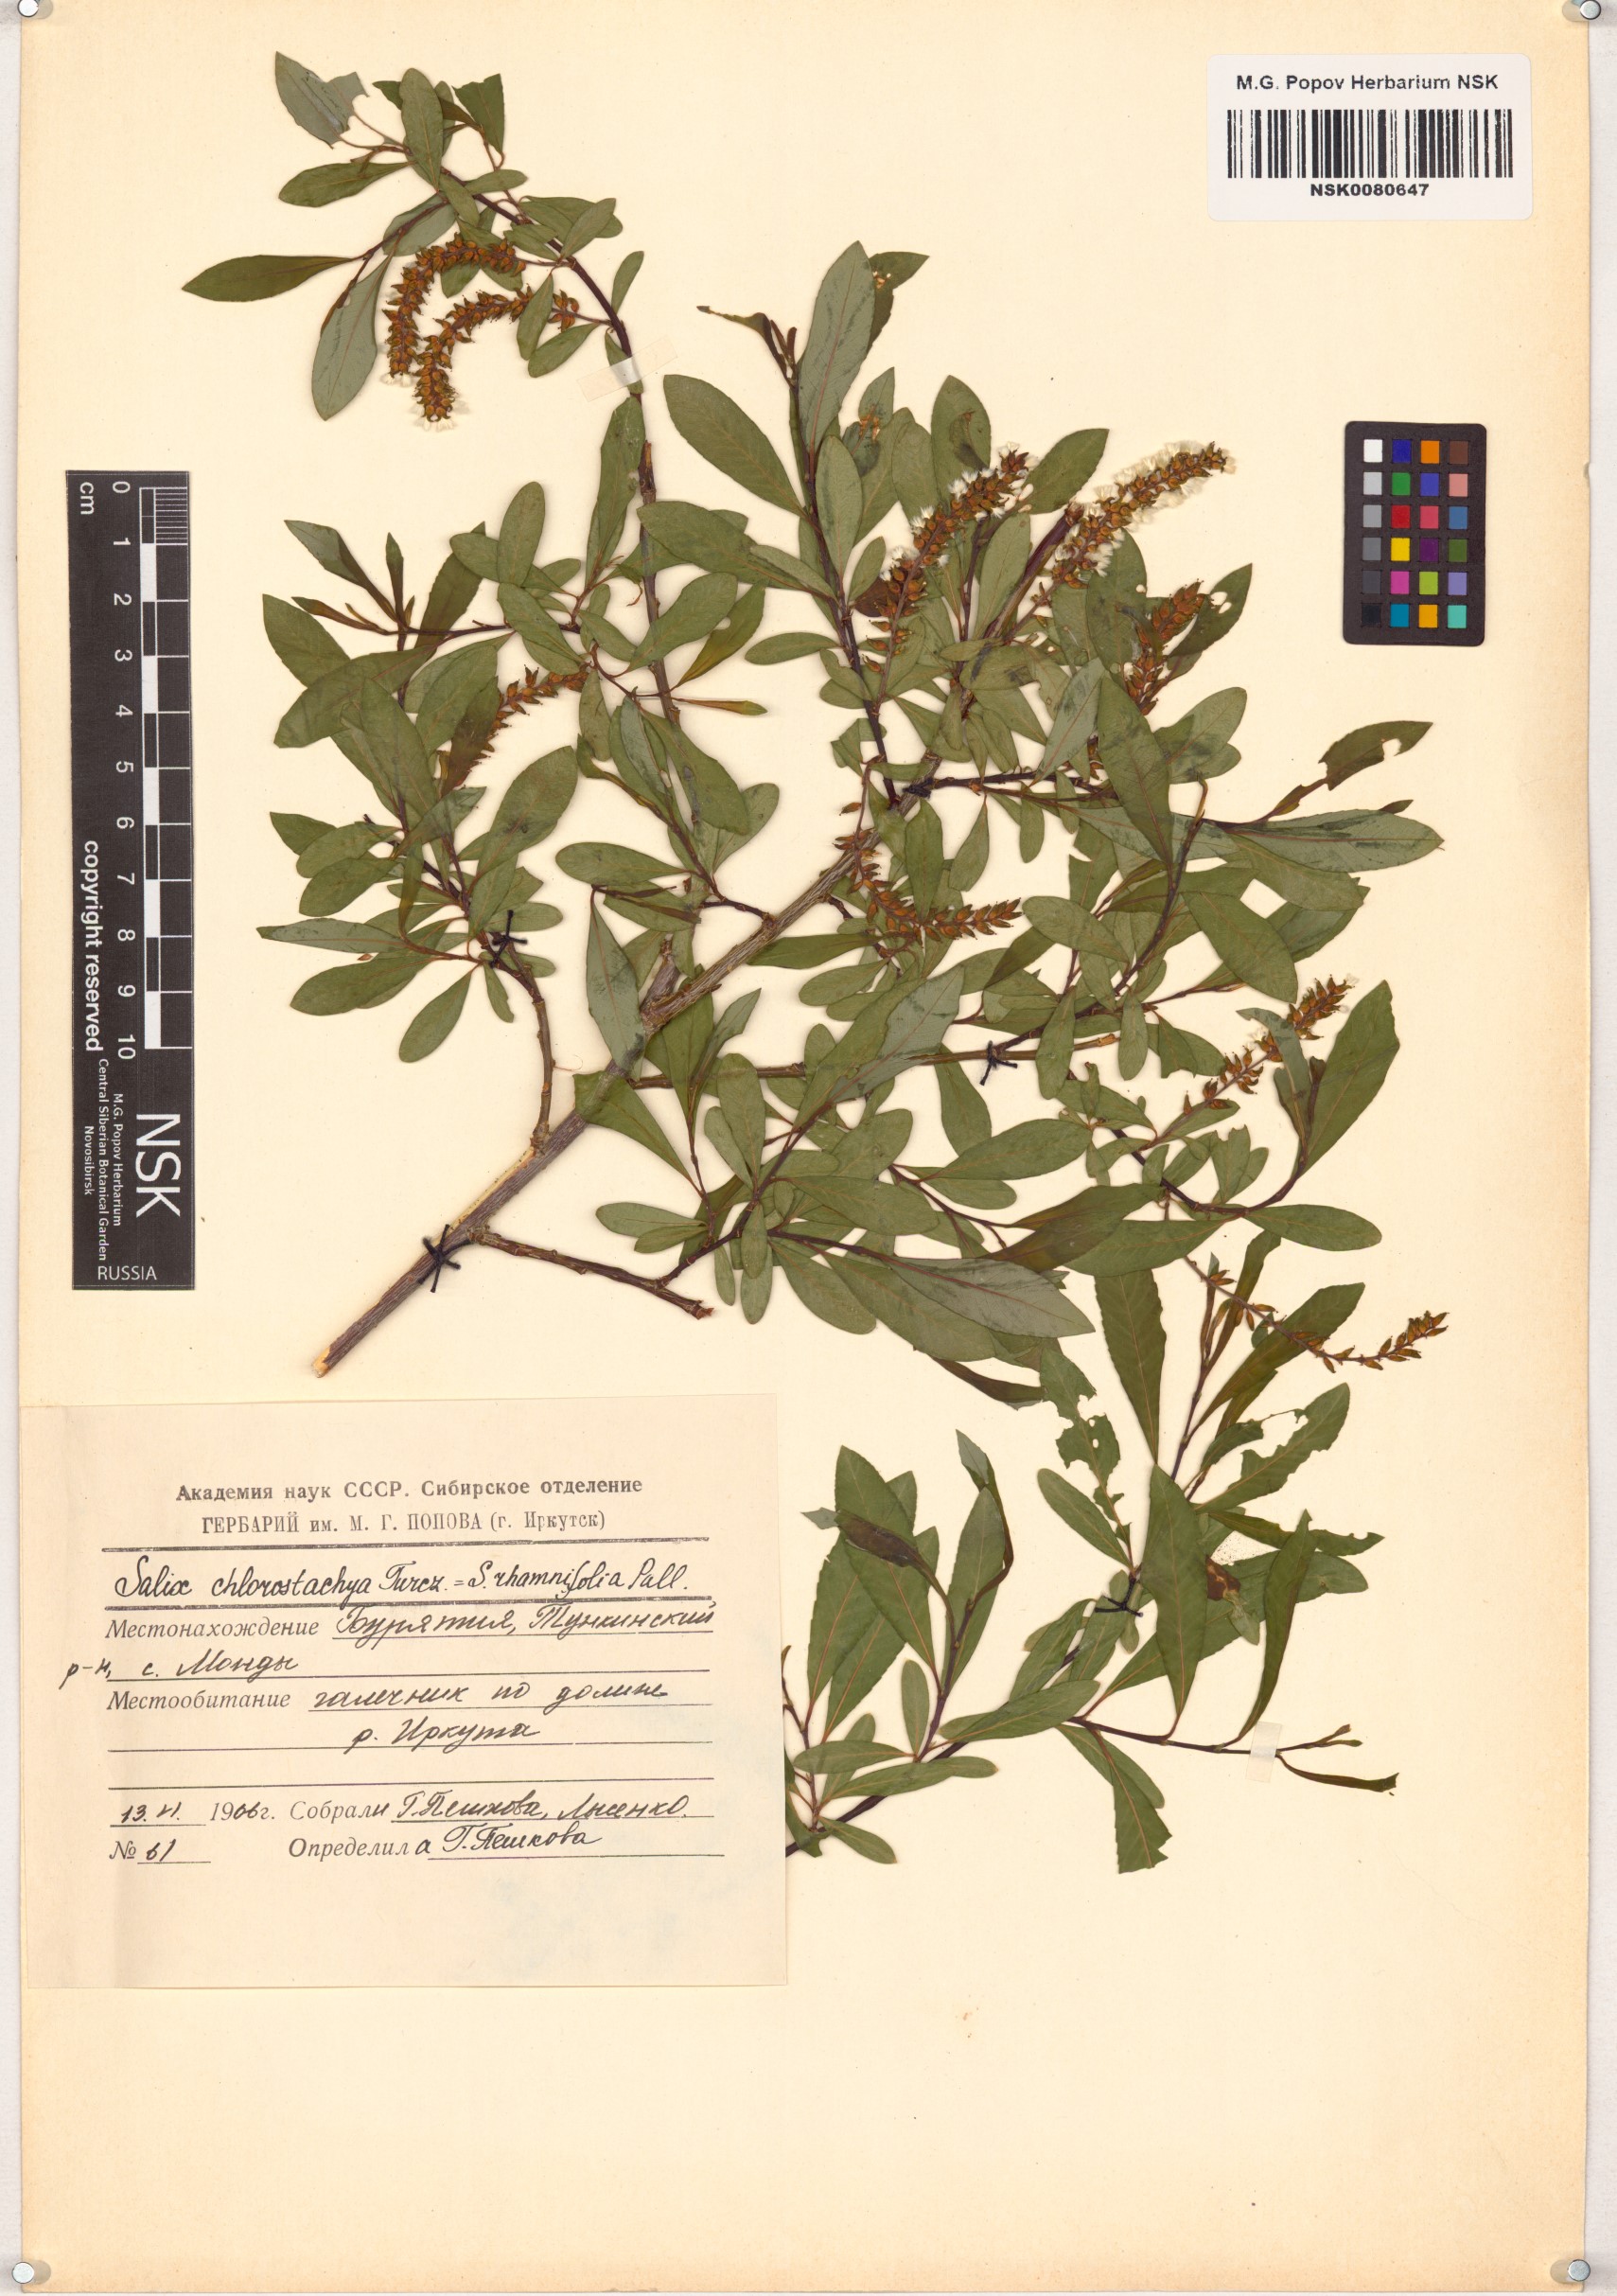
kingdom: Plantae
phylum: Tracheophyta
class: Magnoliopsida
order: Malpighiales
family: Salicaceae
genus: Salix
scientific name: Salix rhamnifolia
